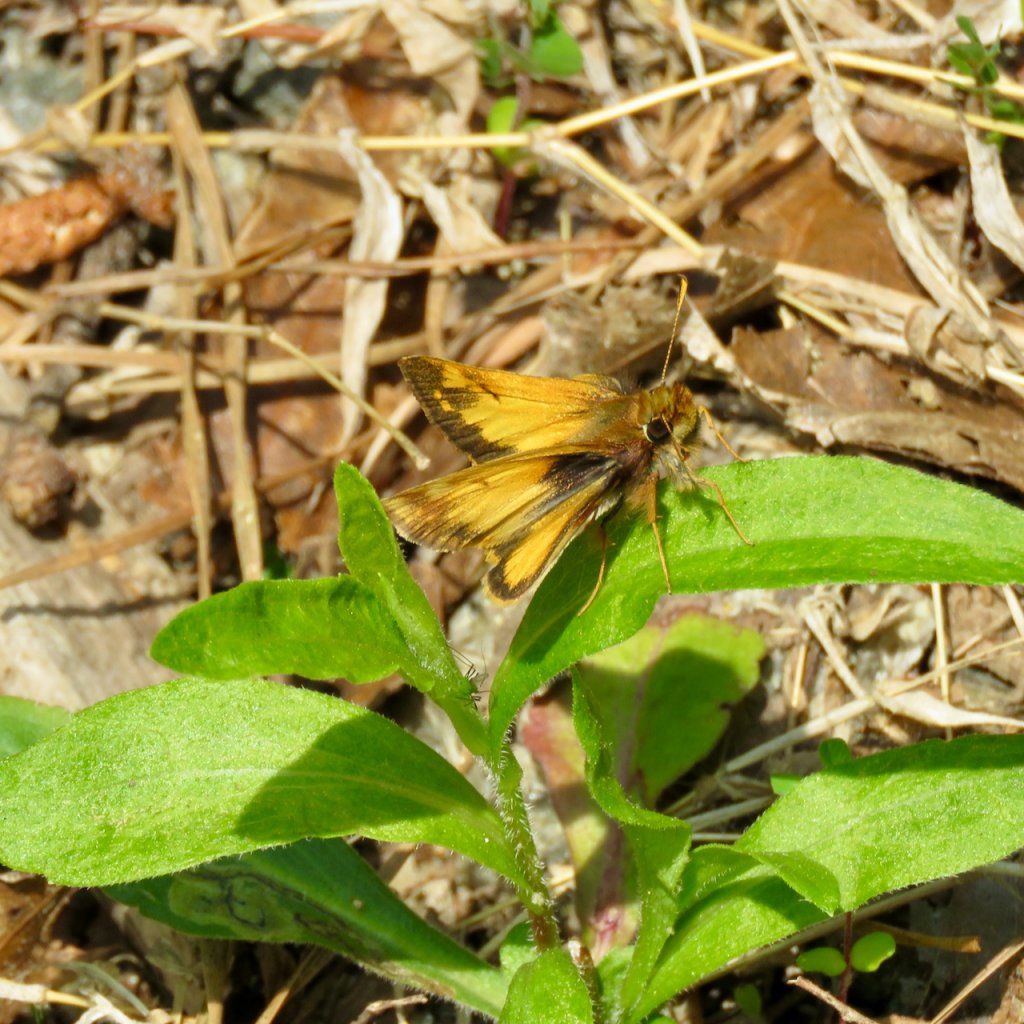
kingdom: Animalia
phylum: Arthropoda
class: Insecta
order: Lepidoptera
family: Hesperiidae
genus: Lon
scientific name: Lon zabulon
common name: Zabulon Skipper
